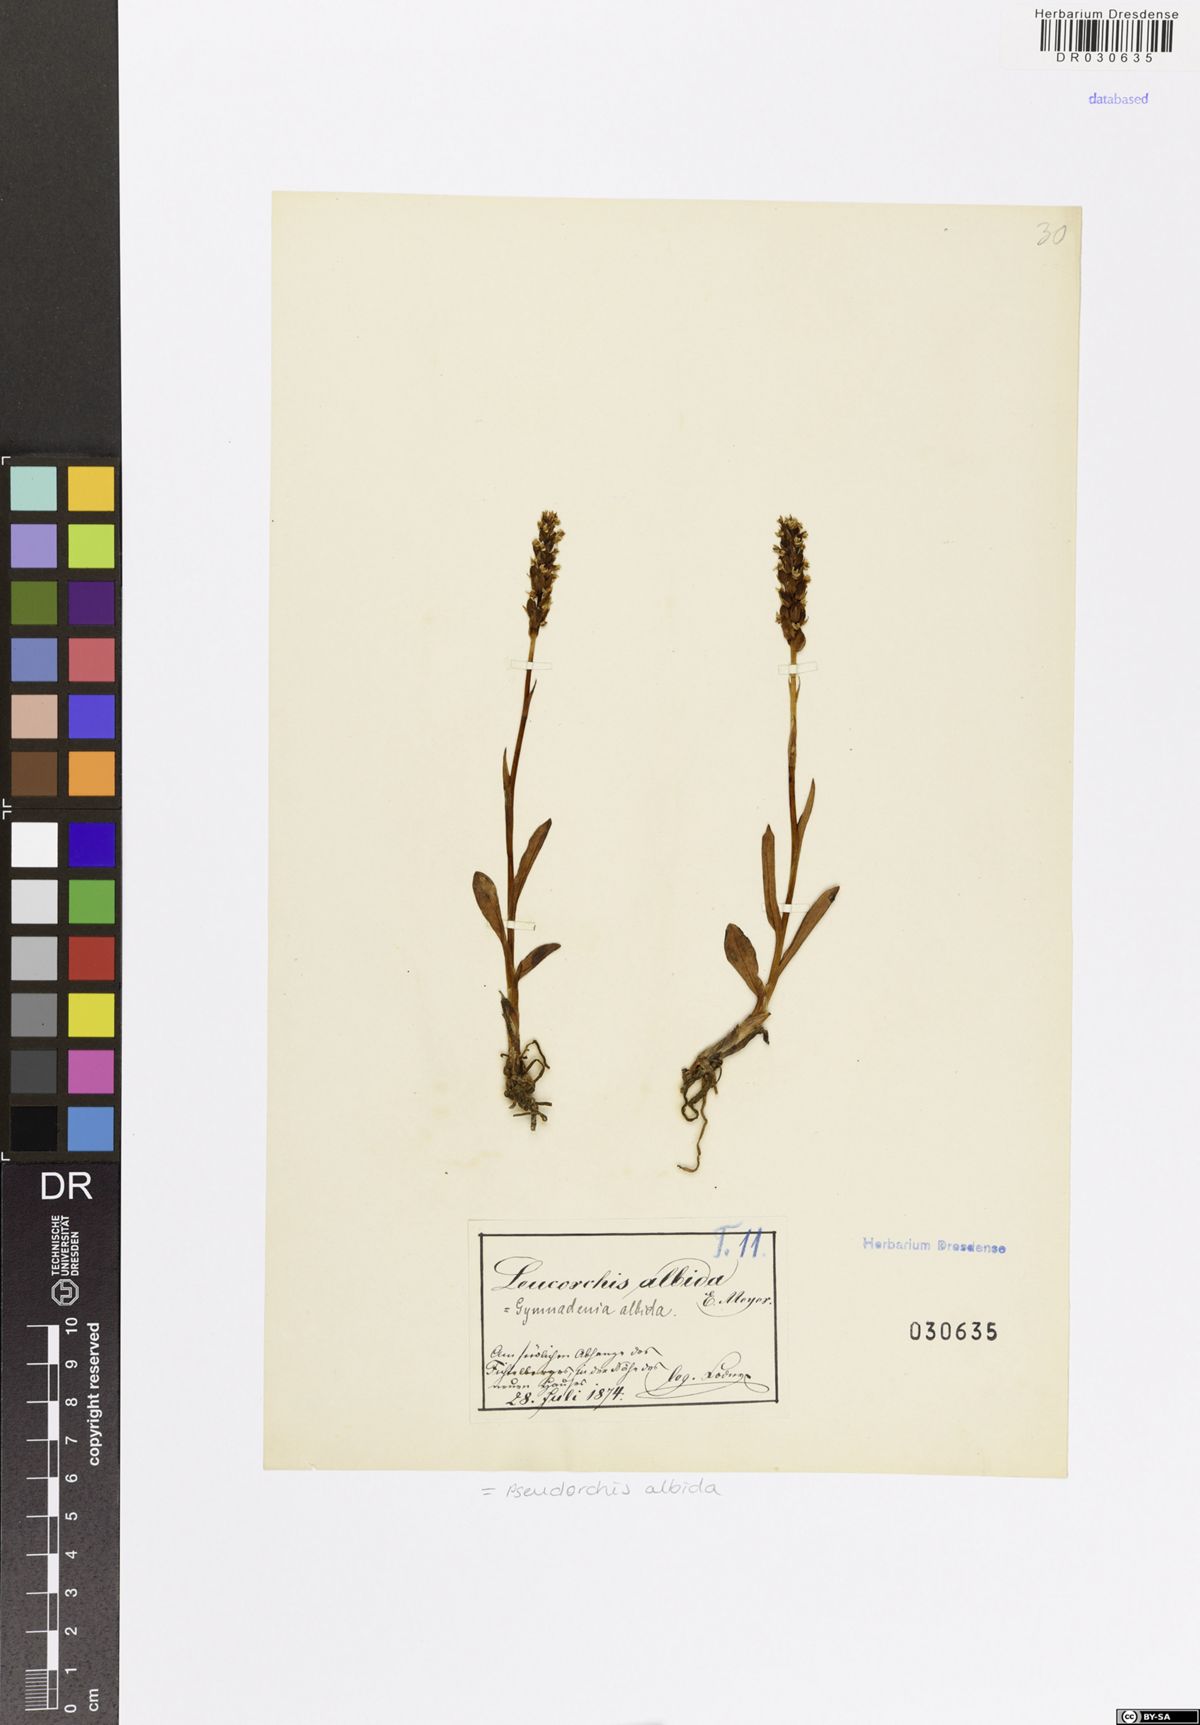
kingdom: Plantae
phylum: Tracheophyta
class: Liliopsida
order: Asparagales
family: Orchidaceae
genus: Pseudorchis
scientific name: Pseudorchis albida
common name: Small-white orchid
